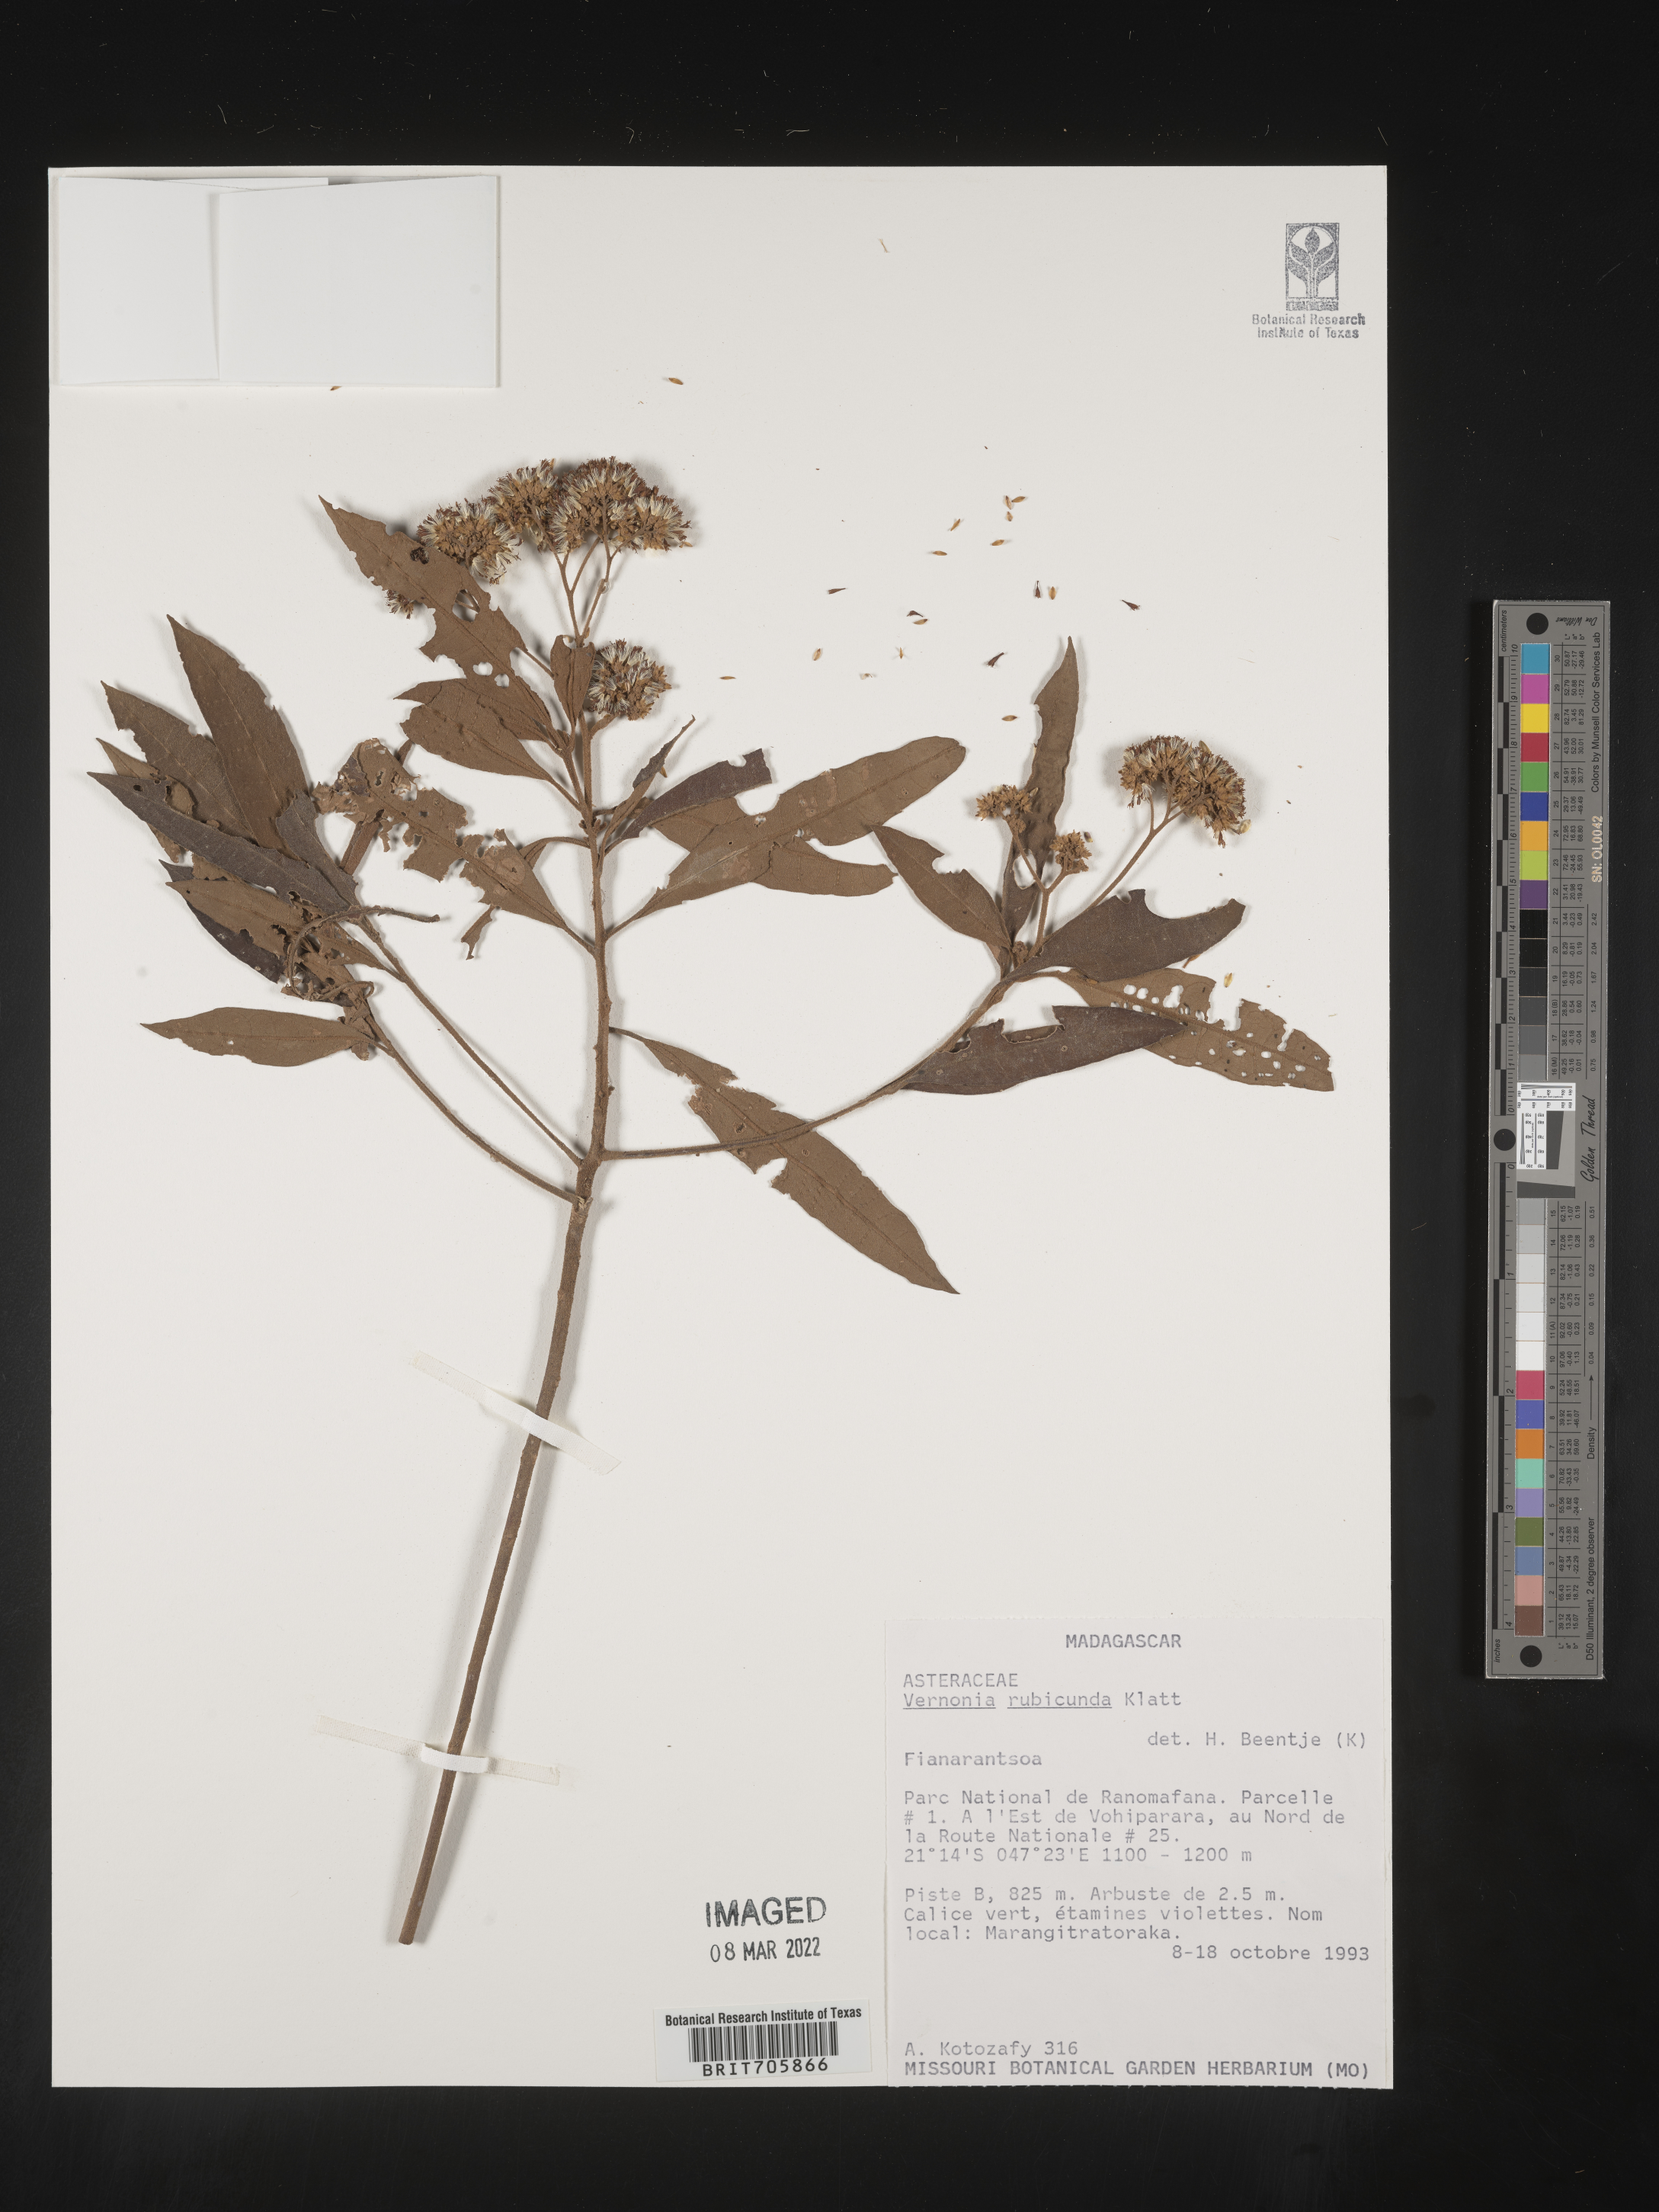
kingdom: Plantae
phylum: Tracheophyta
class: Magnoliopsida
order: Asterales
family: Asteraceae
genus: Vernonia
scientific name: Vernonia
